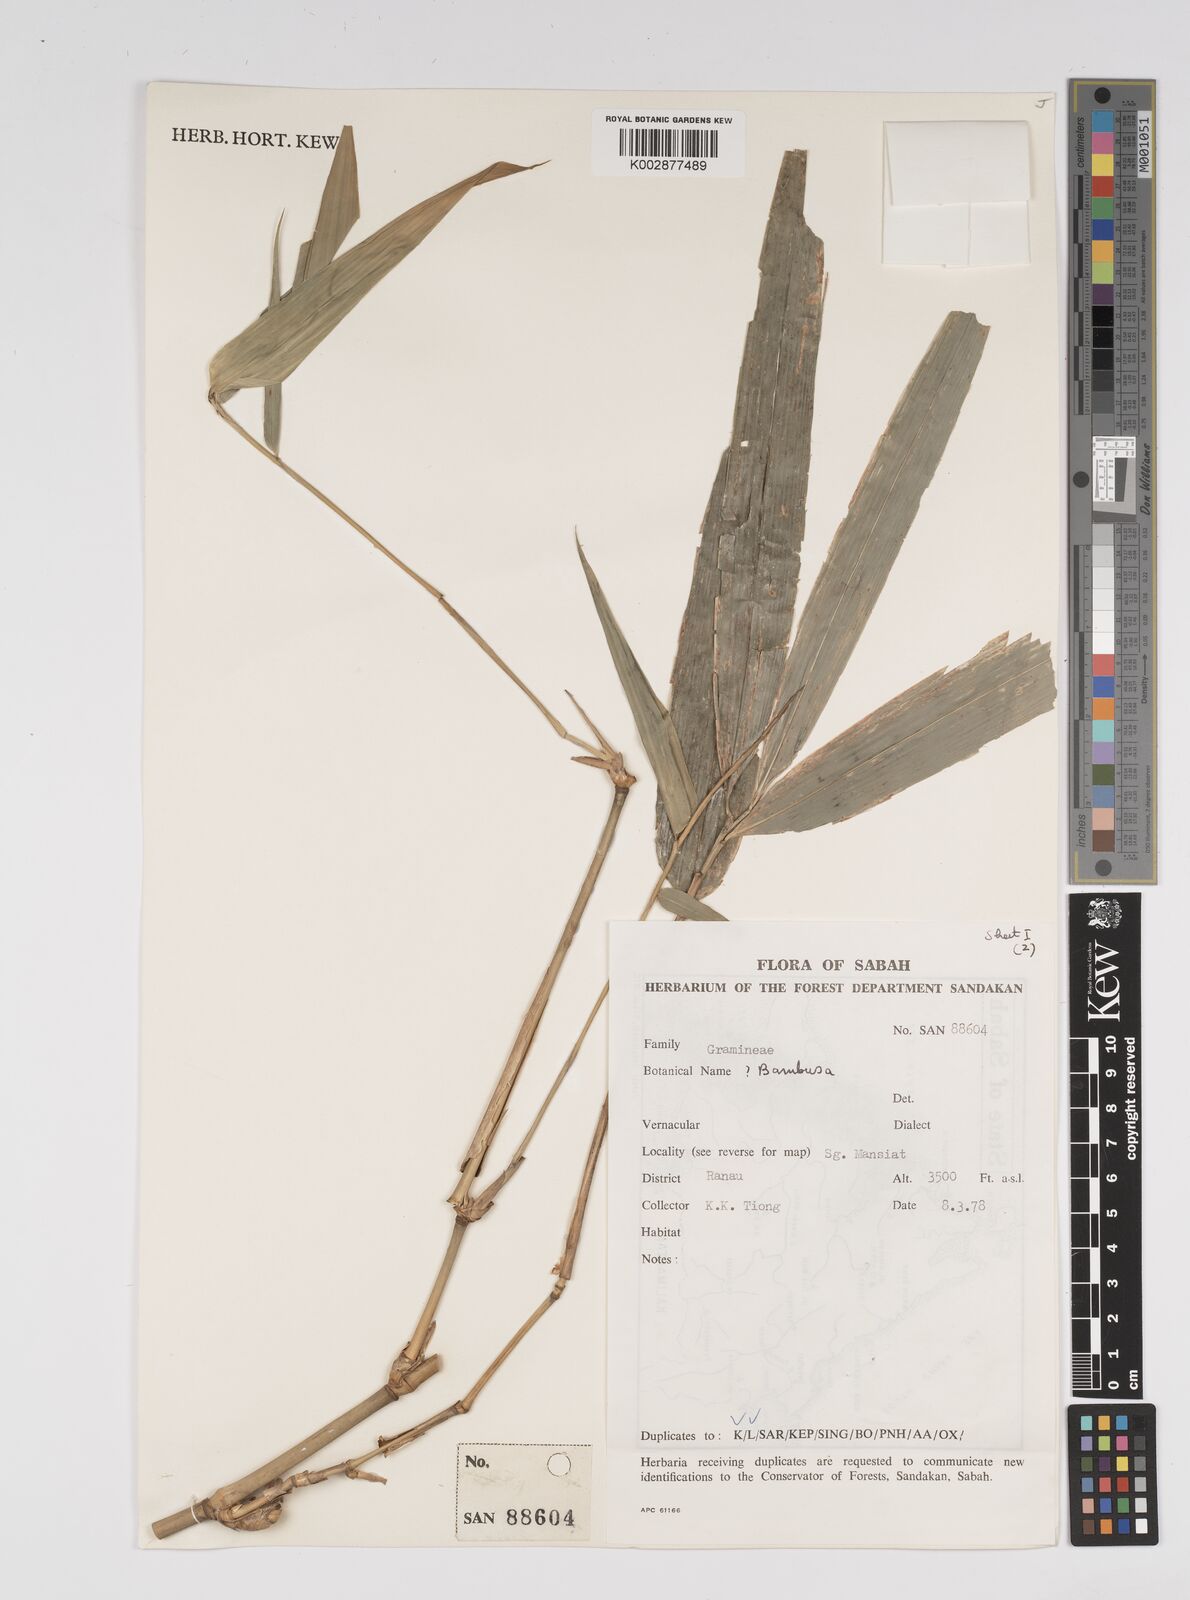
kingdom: Plantae
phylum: Tracheophyta
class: Liliopsida
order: Poales
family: Poaceae
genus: Bambusa
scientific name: Bambusa
